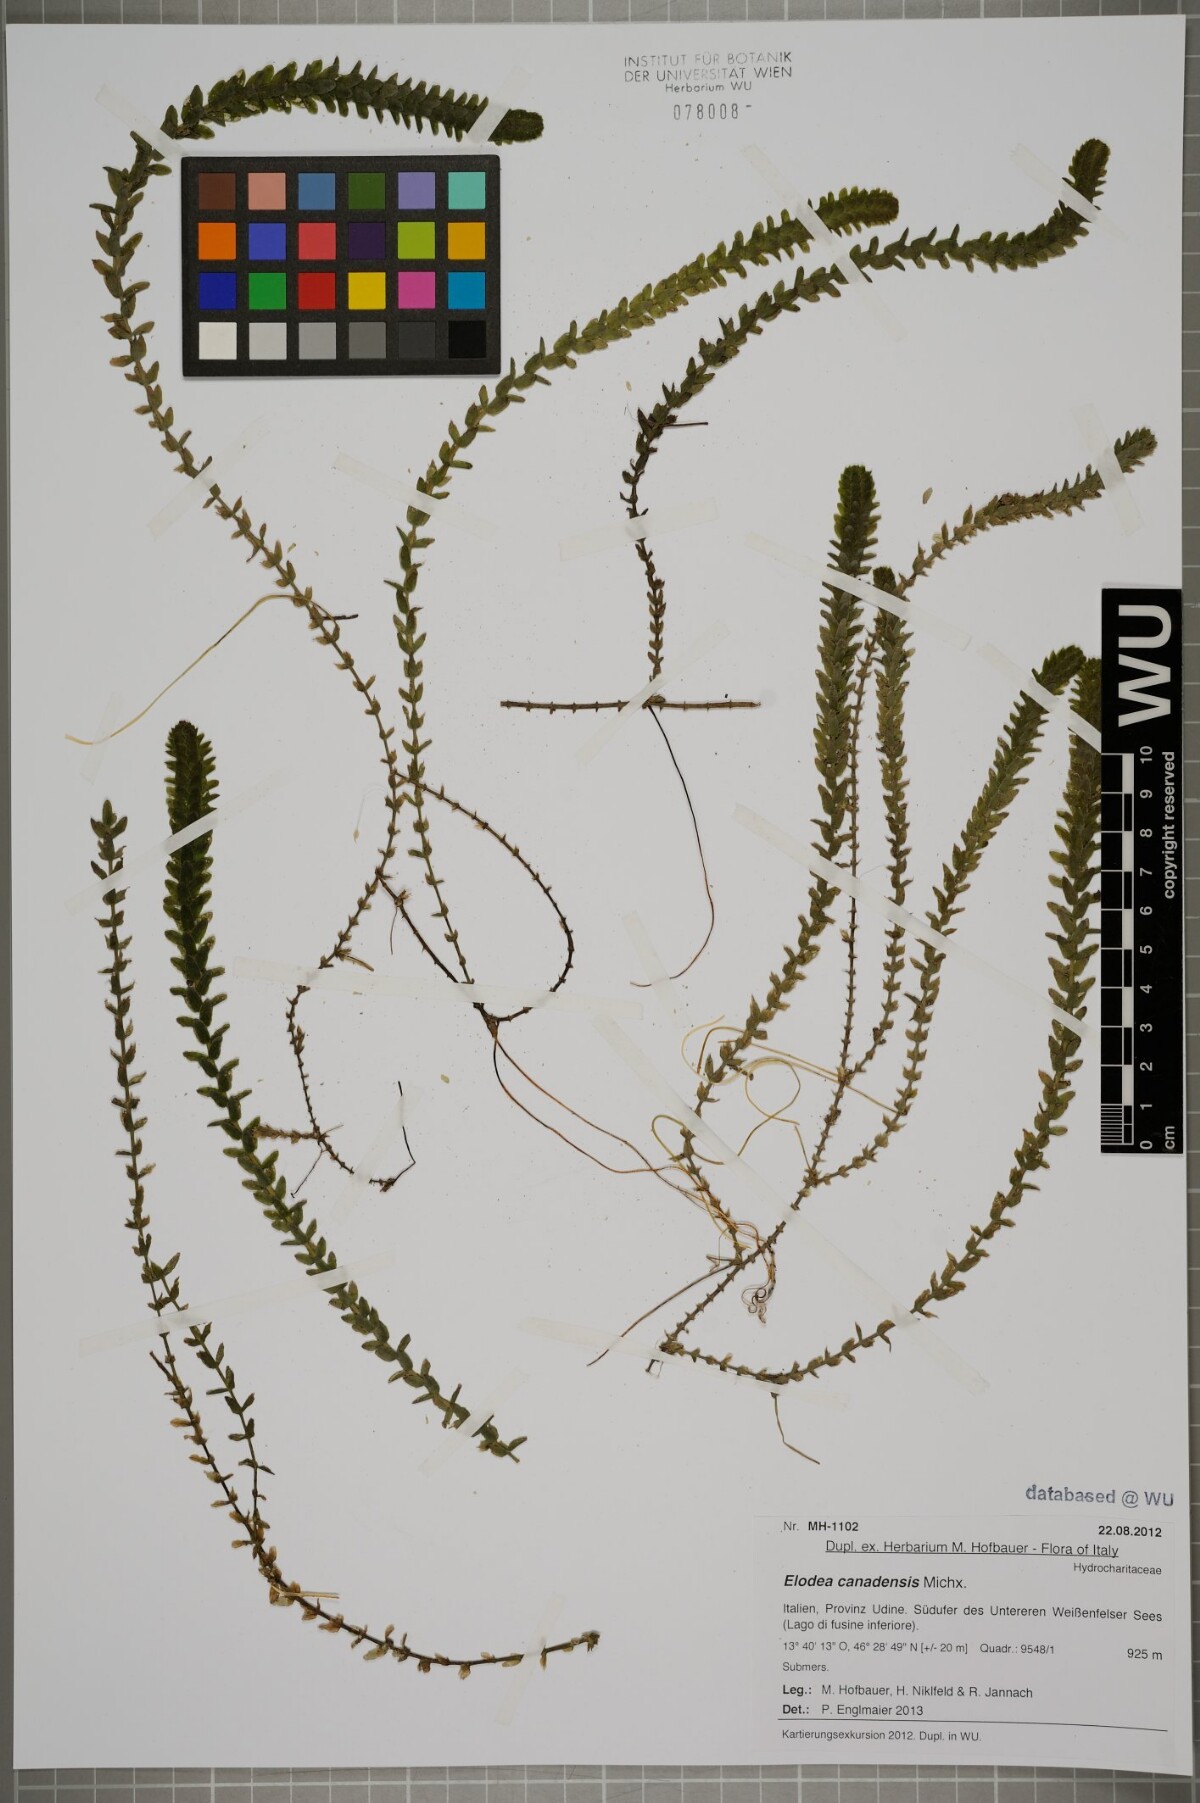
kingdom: Plantae
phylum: Tracheophyta
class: Liliopsida
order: Alismatales
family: Hydrocharitaceae
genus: Elodea
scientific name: Elodea canadensis
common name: Canadian waterweed
